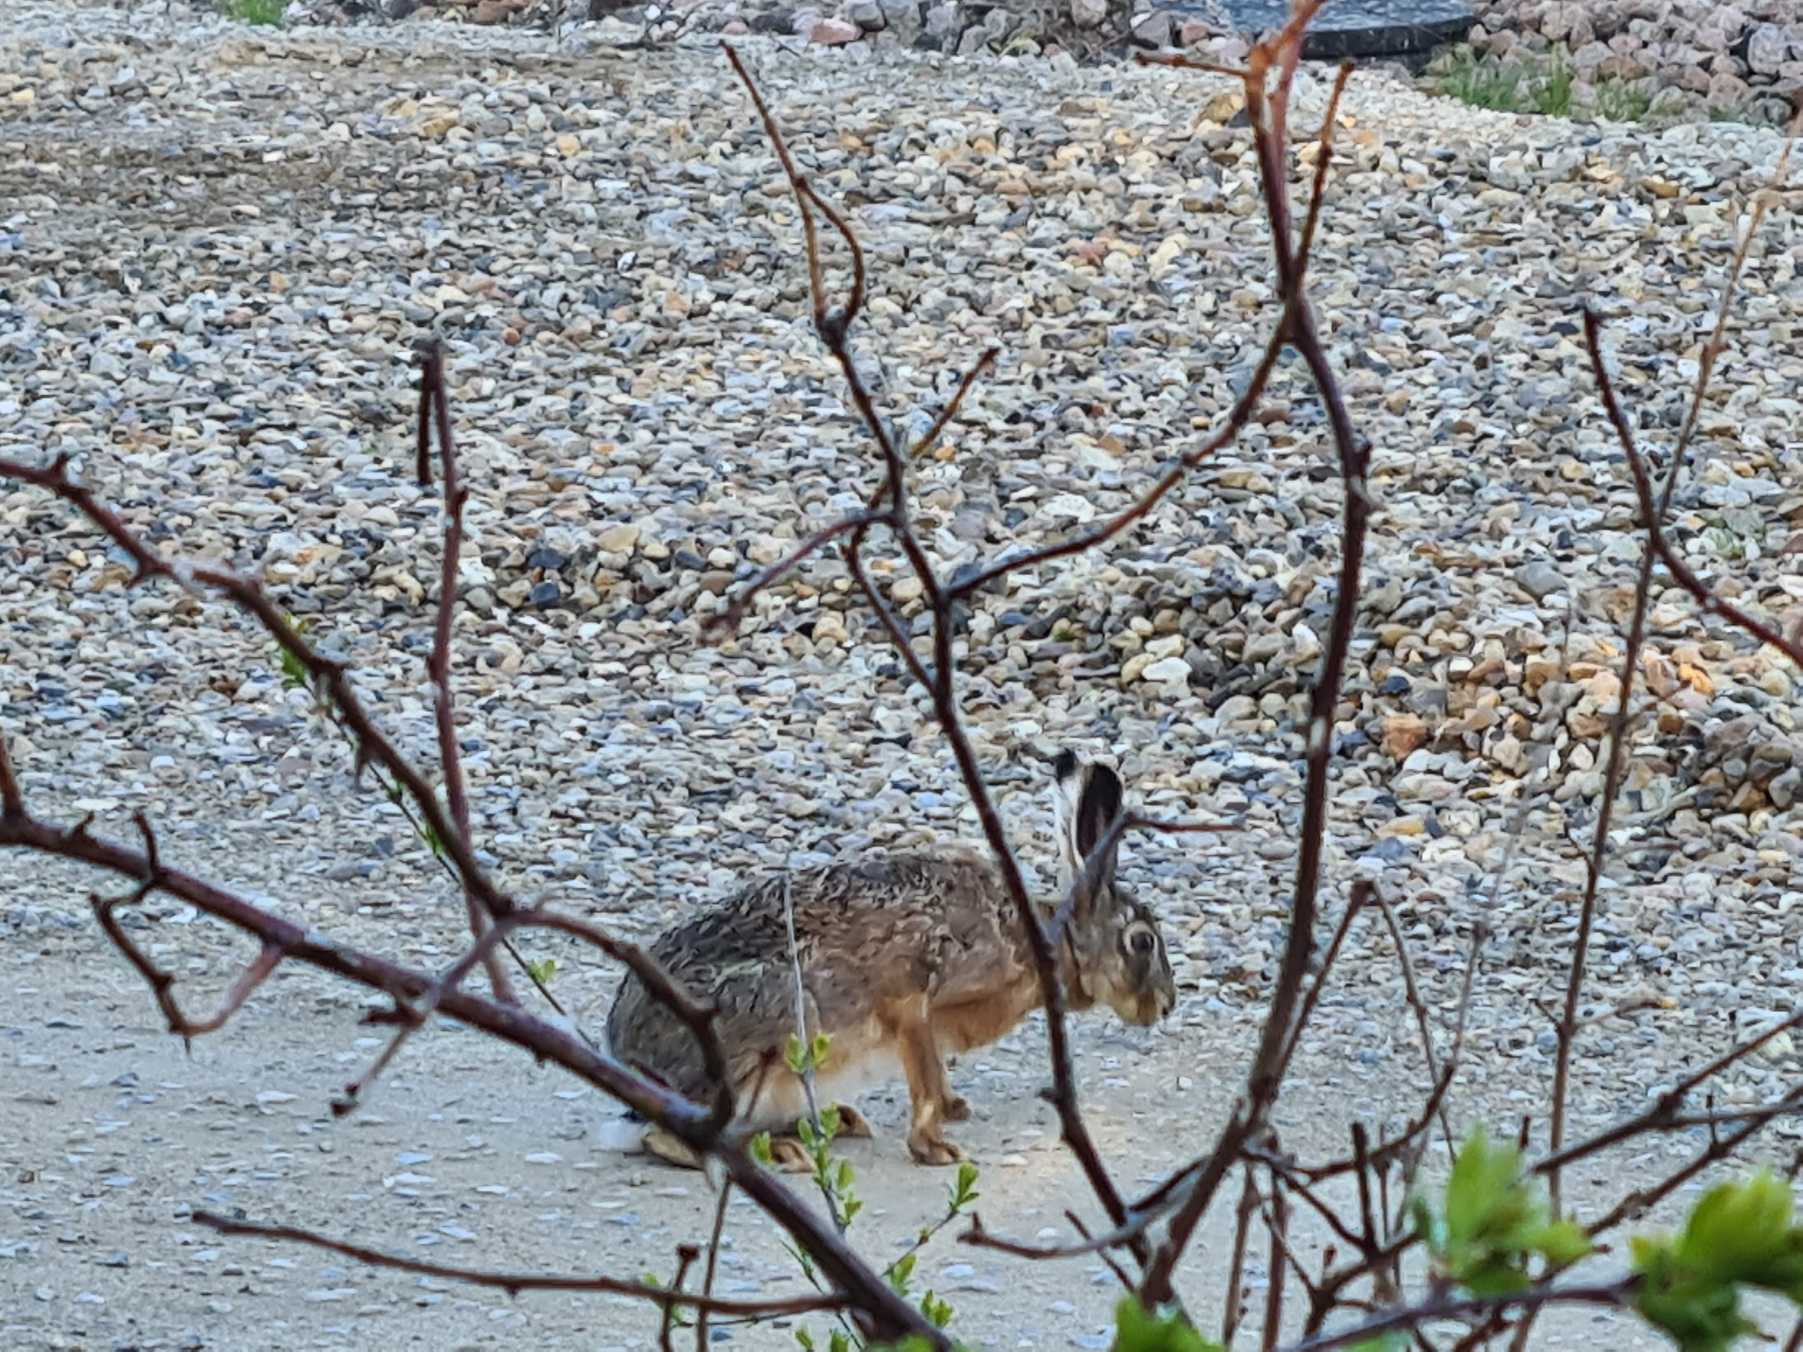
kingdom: Animalia
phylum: Chordata
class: Mammalia
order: Lagomorpha
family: Leporidae
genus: Lepus
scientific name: Lepus europaeus
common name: Hare
